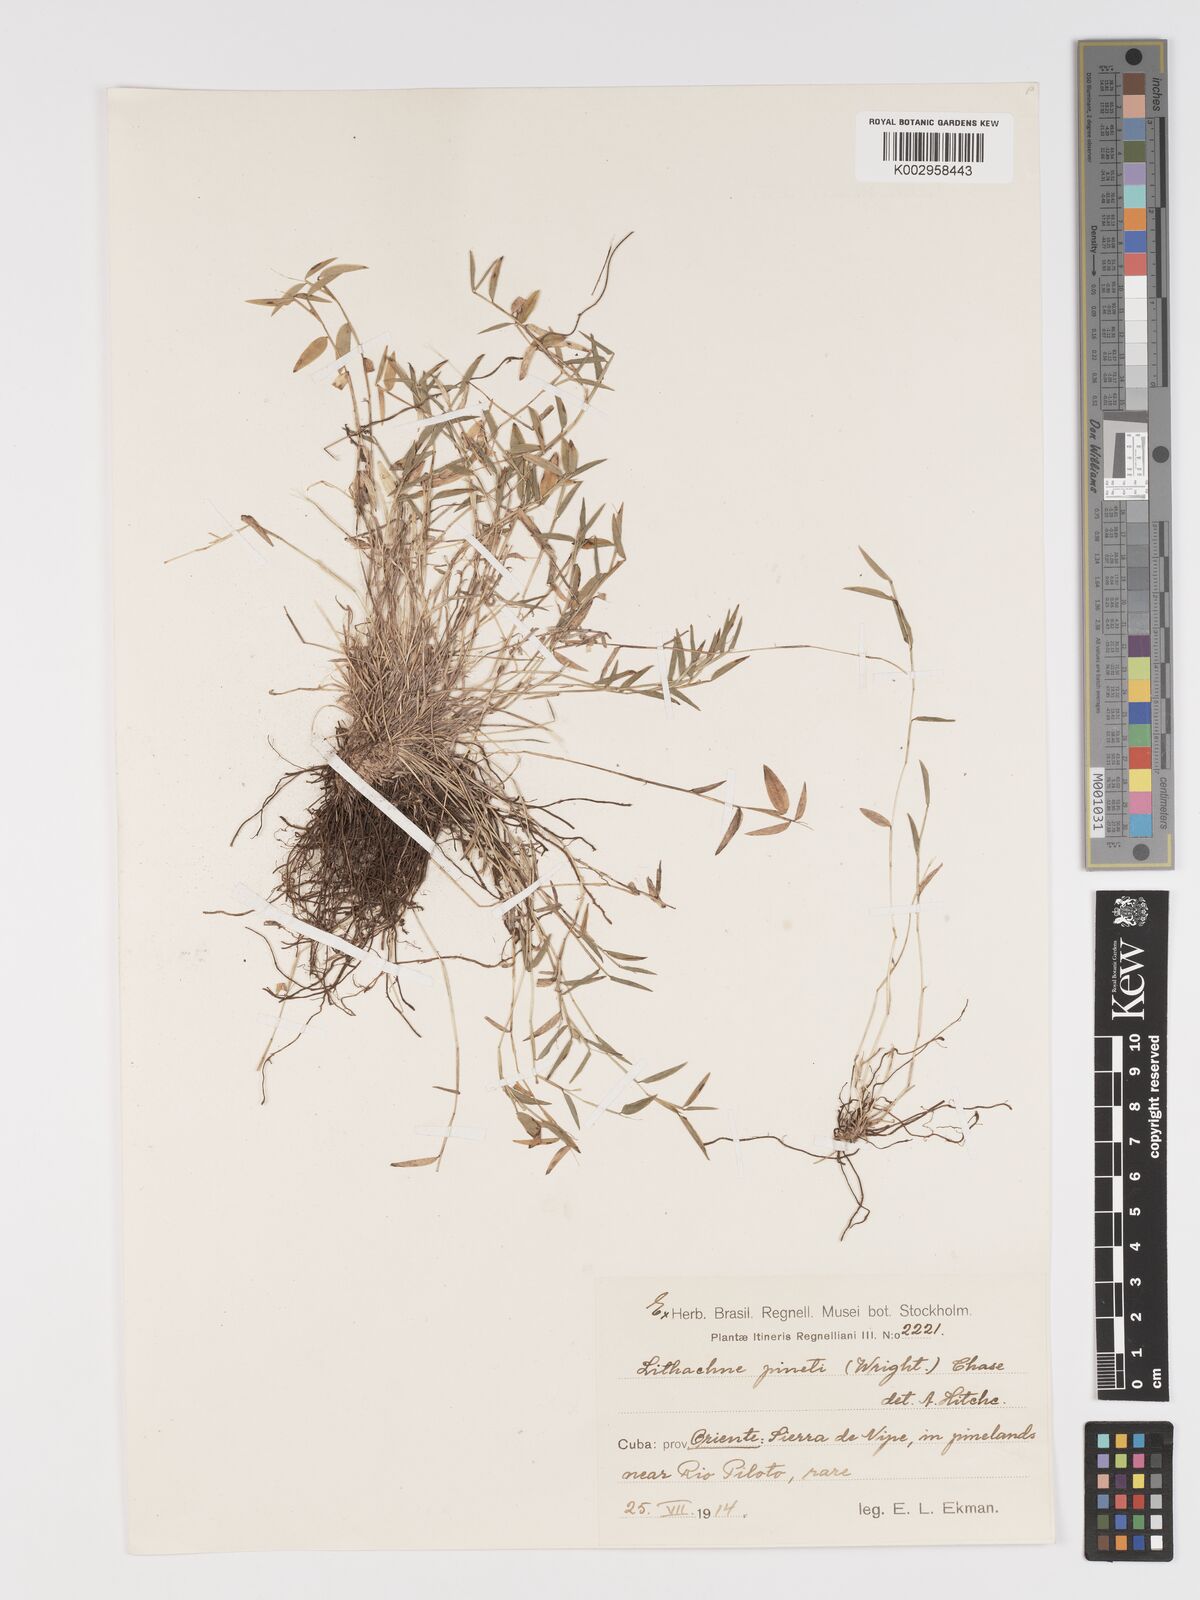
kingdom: Plantae
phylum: Tracheophyta
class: Liliopsida
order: Poales
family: Poaceae
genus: Lithachne
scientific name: Lithachne pinetii
